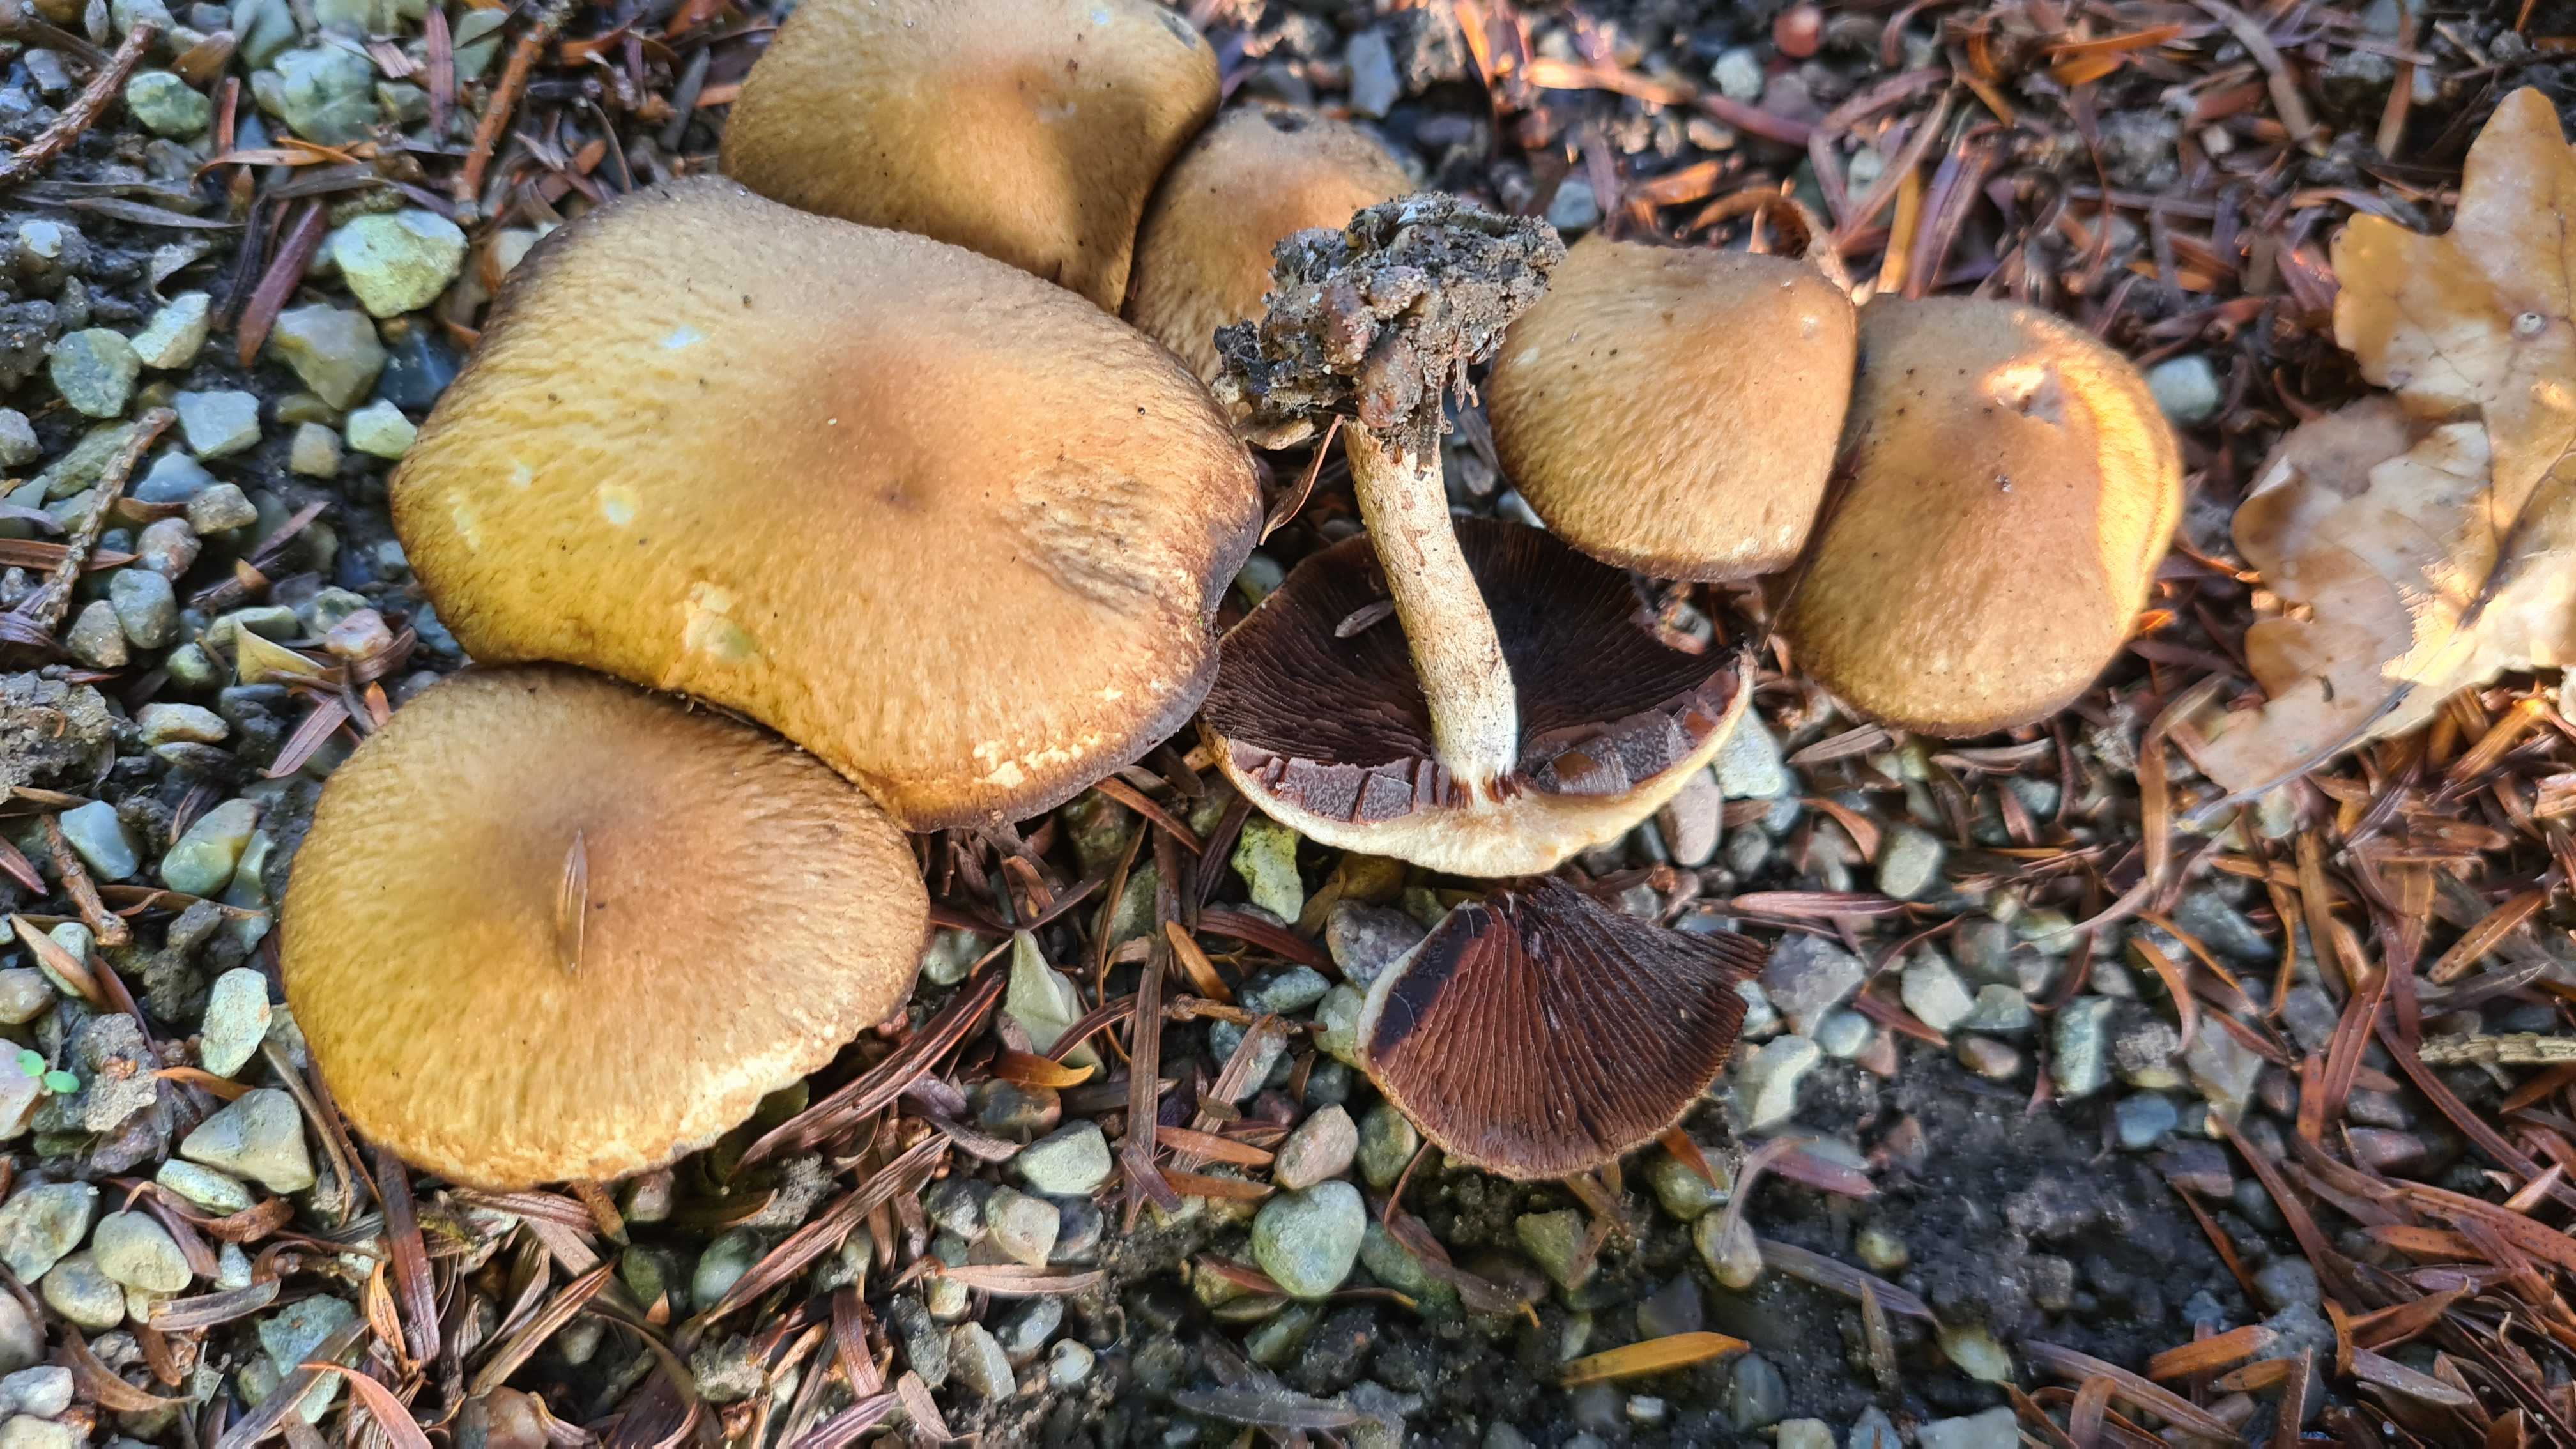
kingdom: Fungi
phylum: Basidiomycota
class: Agaricomycetes
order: Agaricales
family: Psathyrellaceae
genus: Lacrymaria
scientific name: Lacrymaria lacrymabunda
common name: grædende mørkhat
